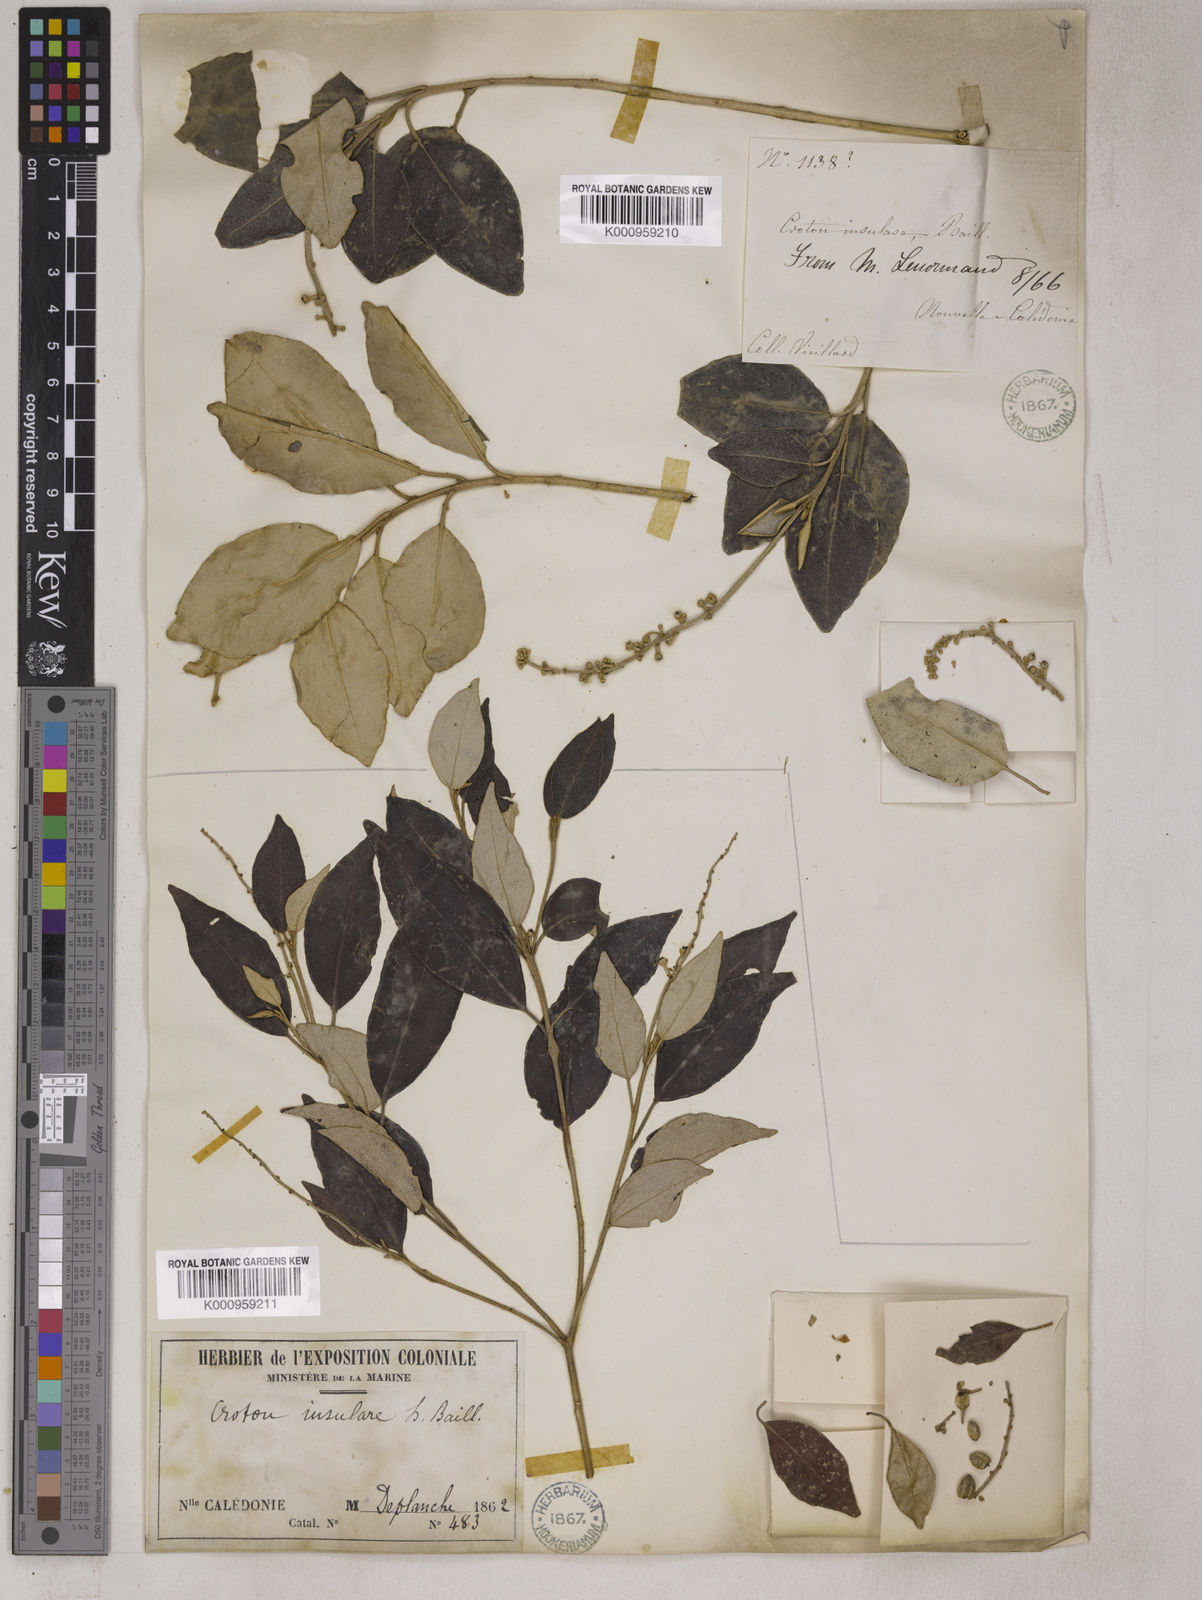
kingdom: Plantae
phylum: Tracheophyta
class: Magnoliopsida
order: Malpighiales
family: Euphorbiaceae
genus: Croton
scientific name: Croton insularis
